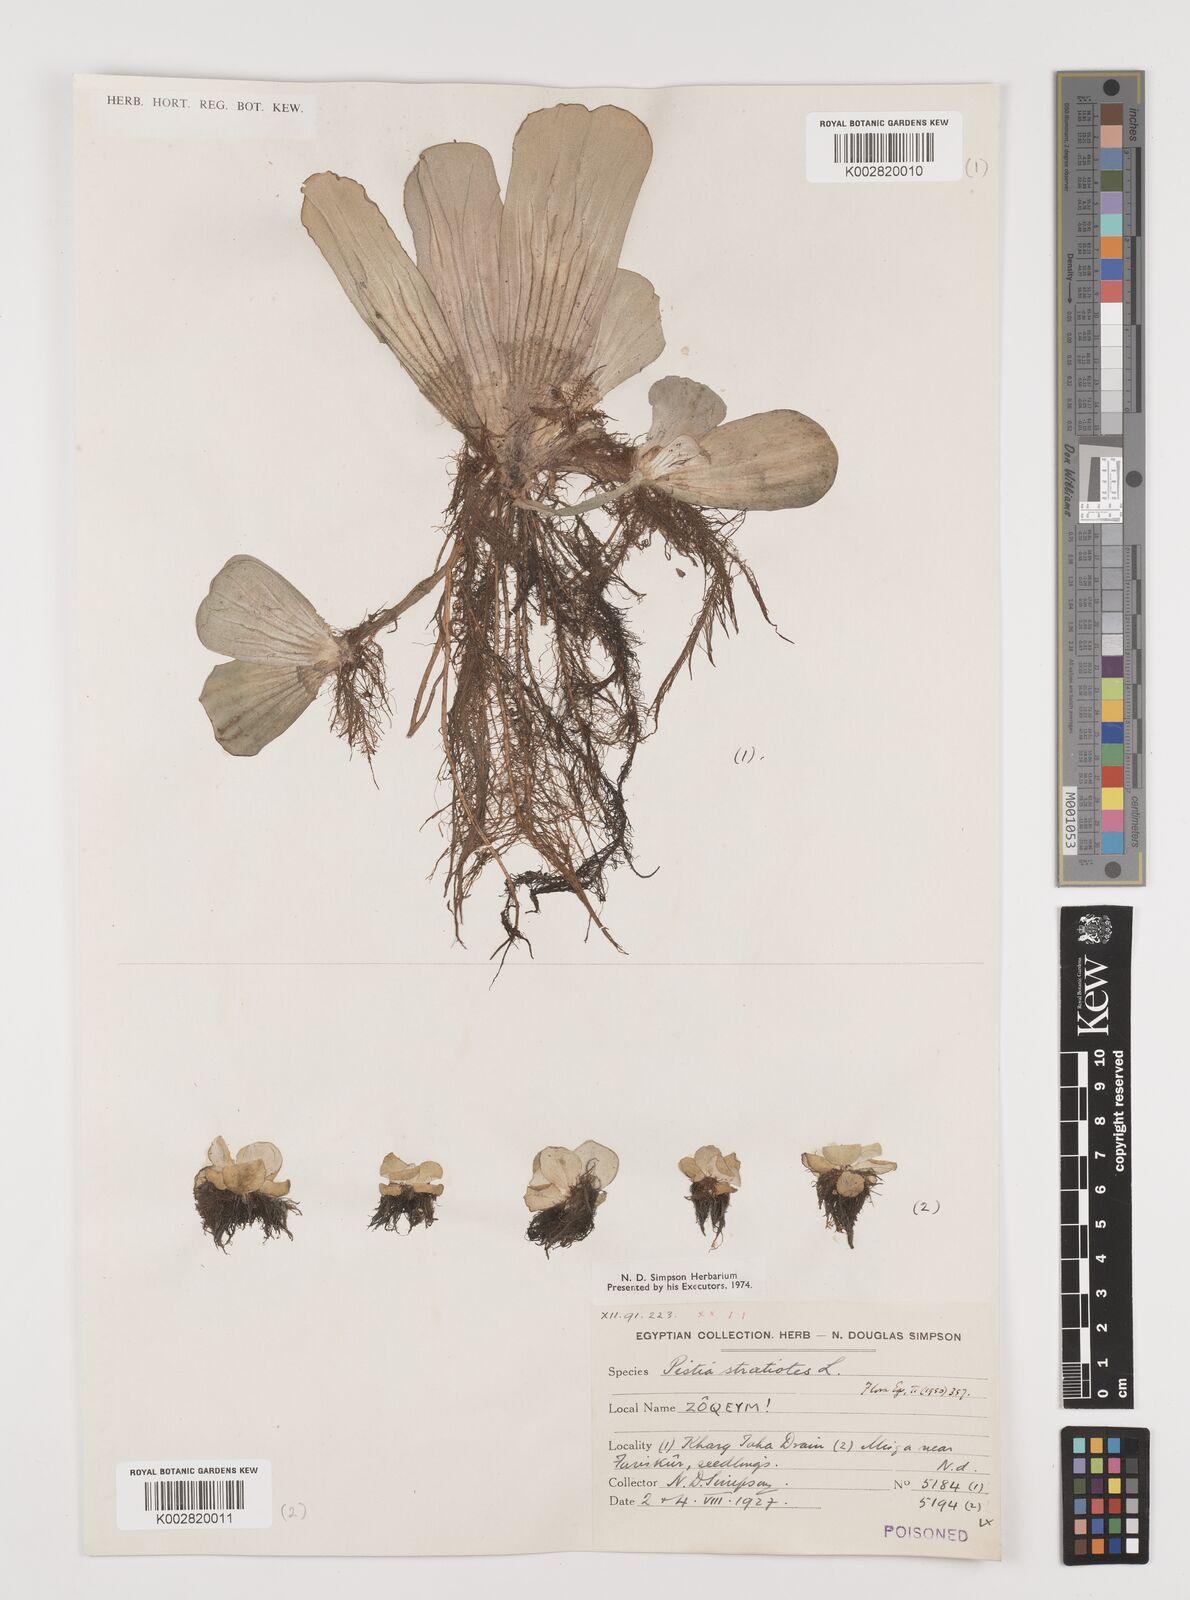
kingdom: Plantae
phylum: Tracheophyta
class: Liliopsida
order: Alismatales
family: Araceae
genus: Pistia
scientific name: Pistia stratiotes
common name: Water lettuce
